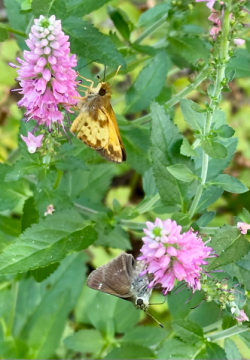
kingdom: Animalia
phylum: Arthropoda
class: Insecta
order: Lepidoptera
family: Hesperiidae
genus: Lon
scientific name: Lon zabulon
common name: Zabulon Skipper
